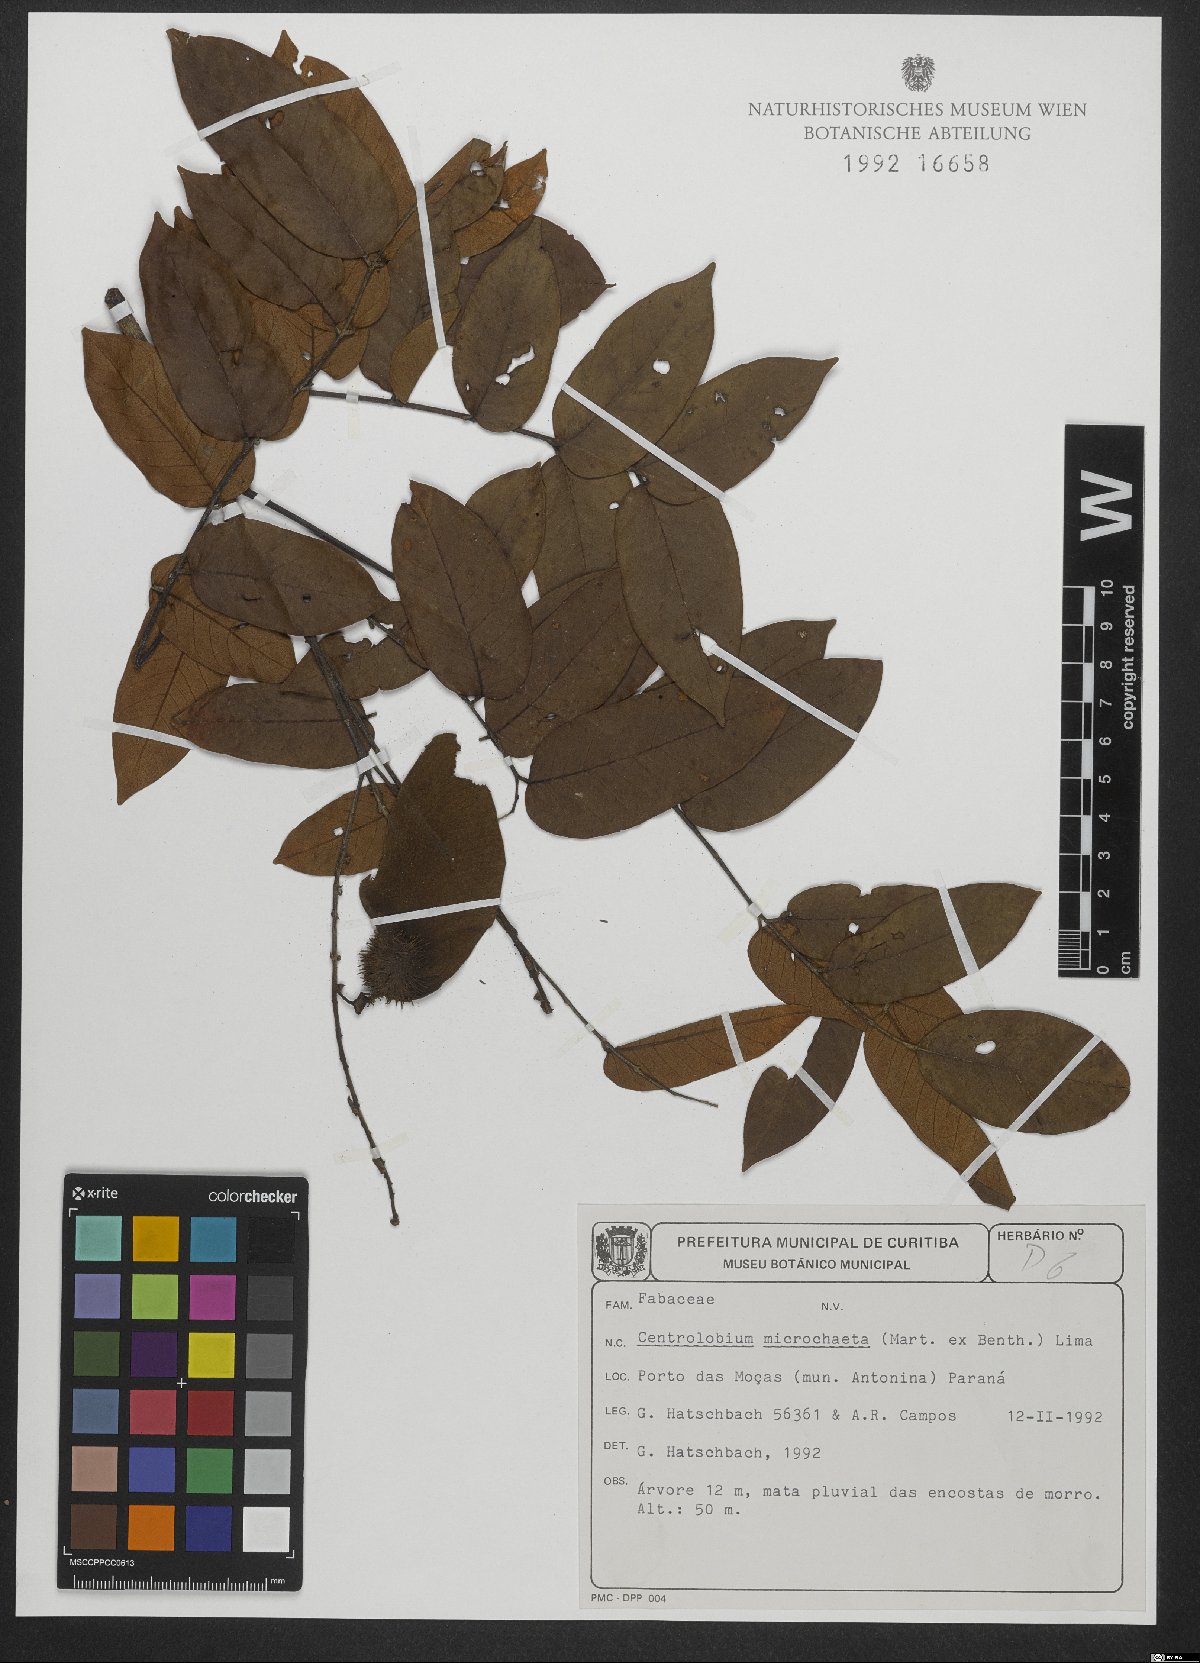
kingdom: Plantae
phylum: Tracheophyta
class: Magnoliopsida
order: Fabales
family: Fabaceae
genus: Centrolobium
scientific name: Centrolobium microchaete
